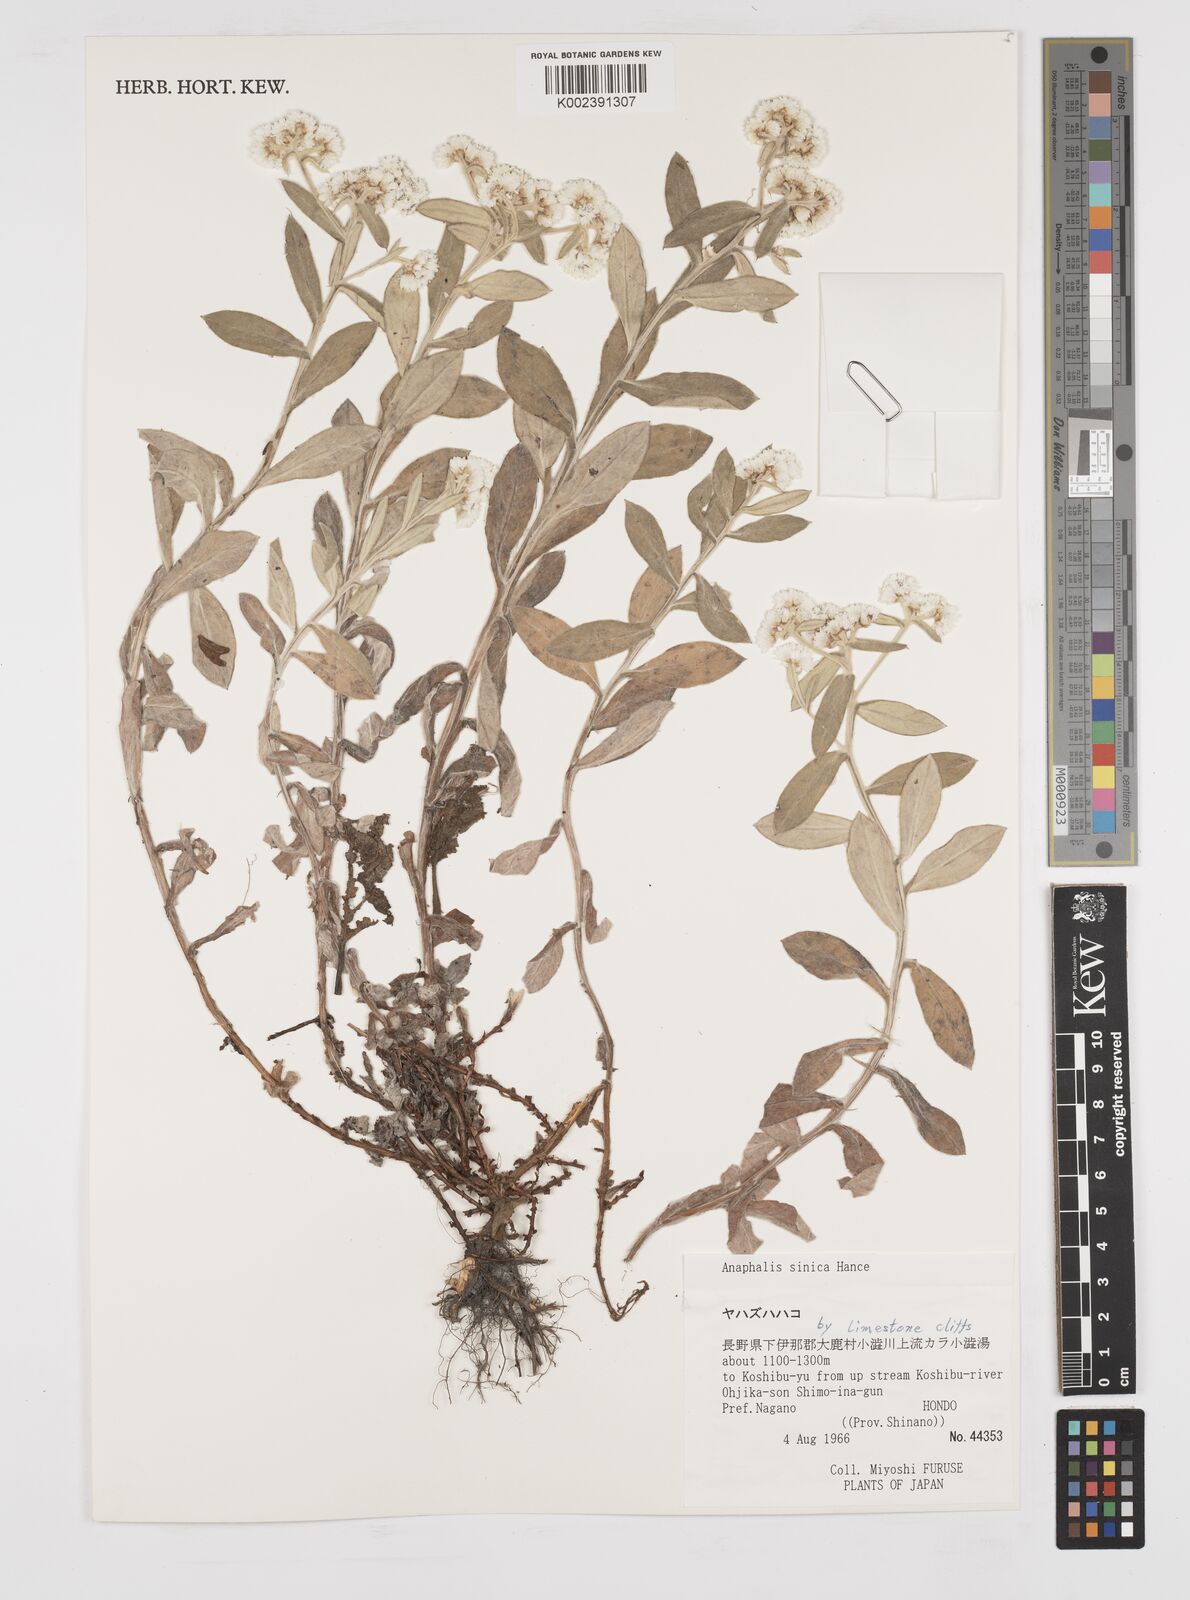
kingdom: Plantae
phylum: Tracheophyta
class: Magnoliopsida
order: Asterales
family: Asteraceae
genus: Anaphalis
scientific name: Anaphalis sinica
